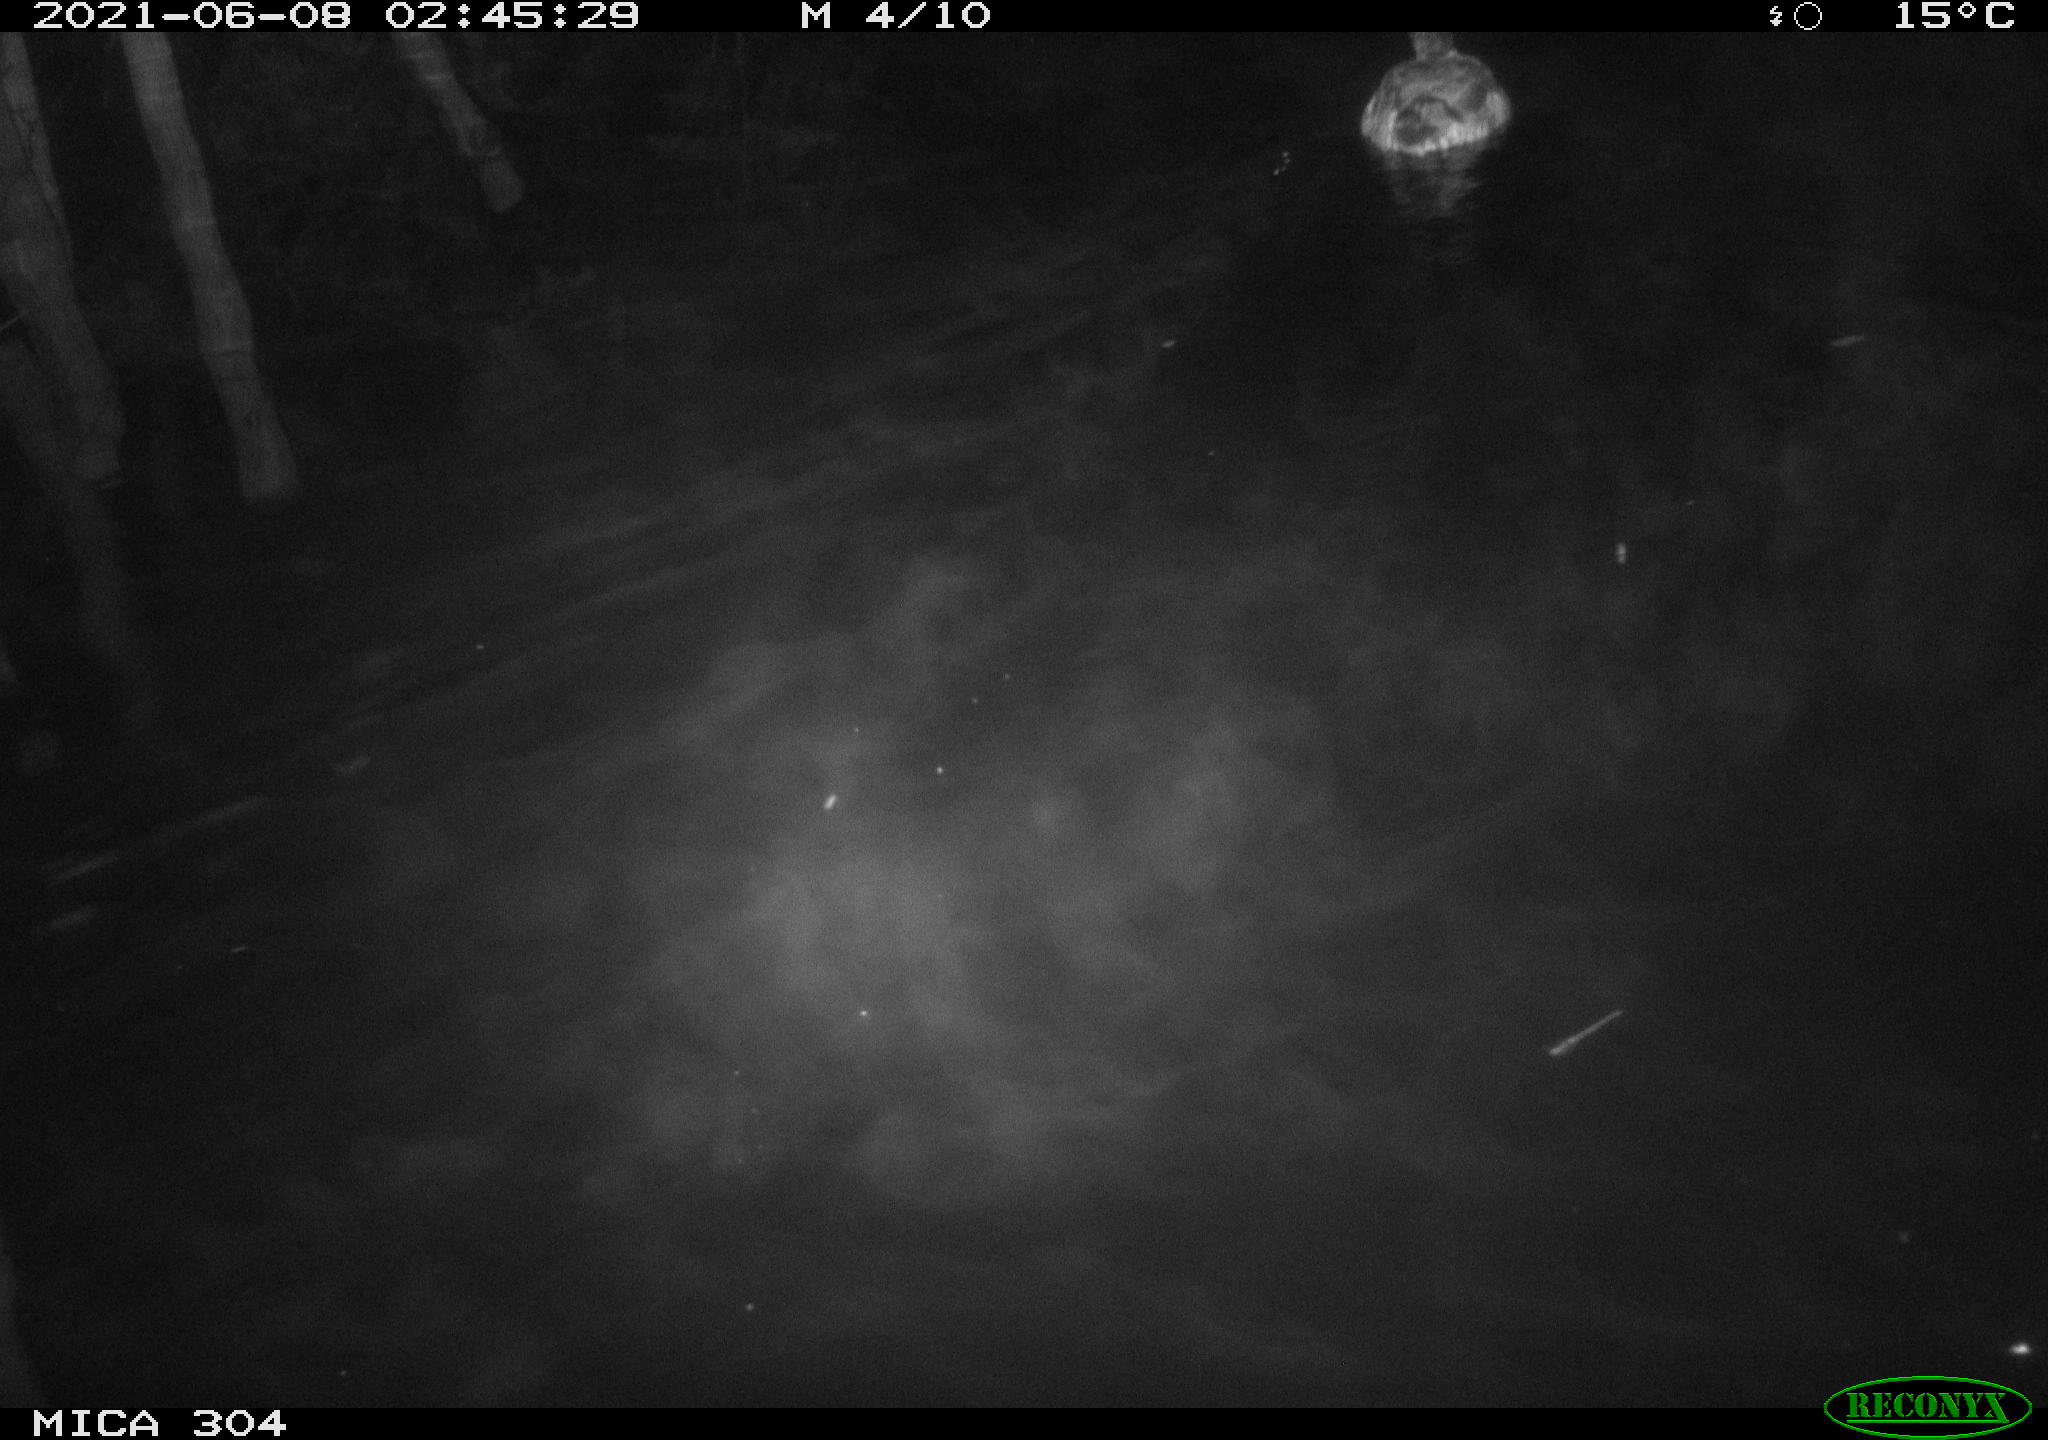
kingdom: Animalia
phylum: Chordata
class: Aves
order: Anseriformes
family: Anatidae
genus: Anas
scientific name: Anas platyrhynchos
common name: Mallard
